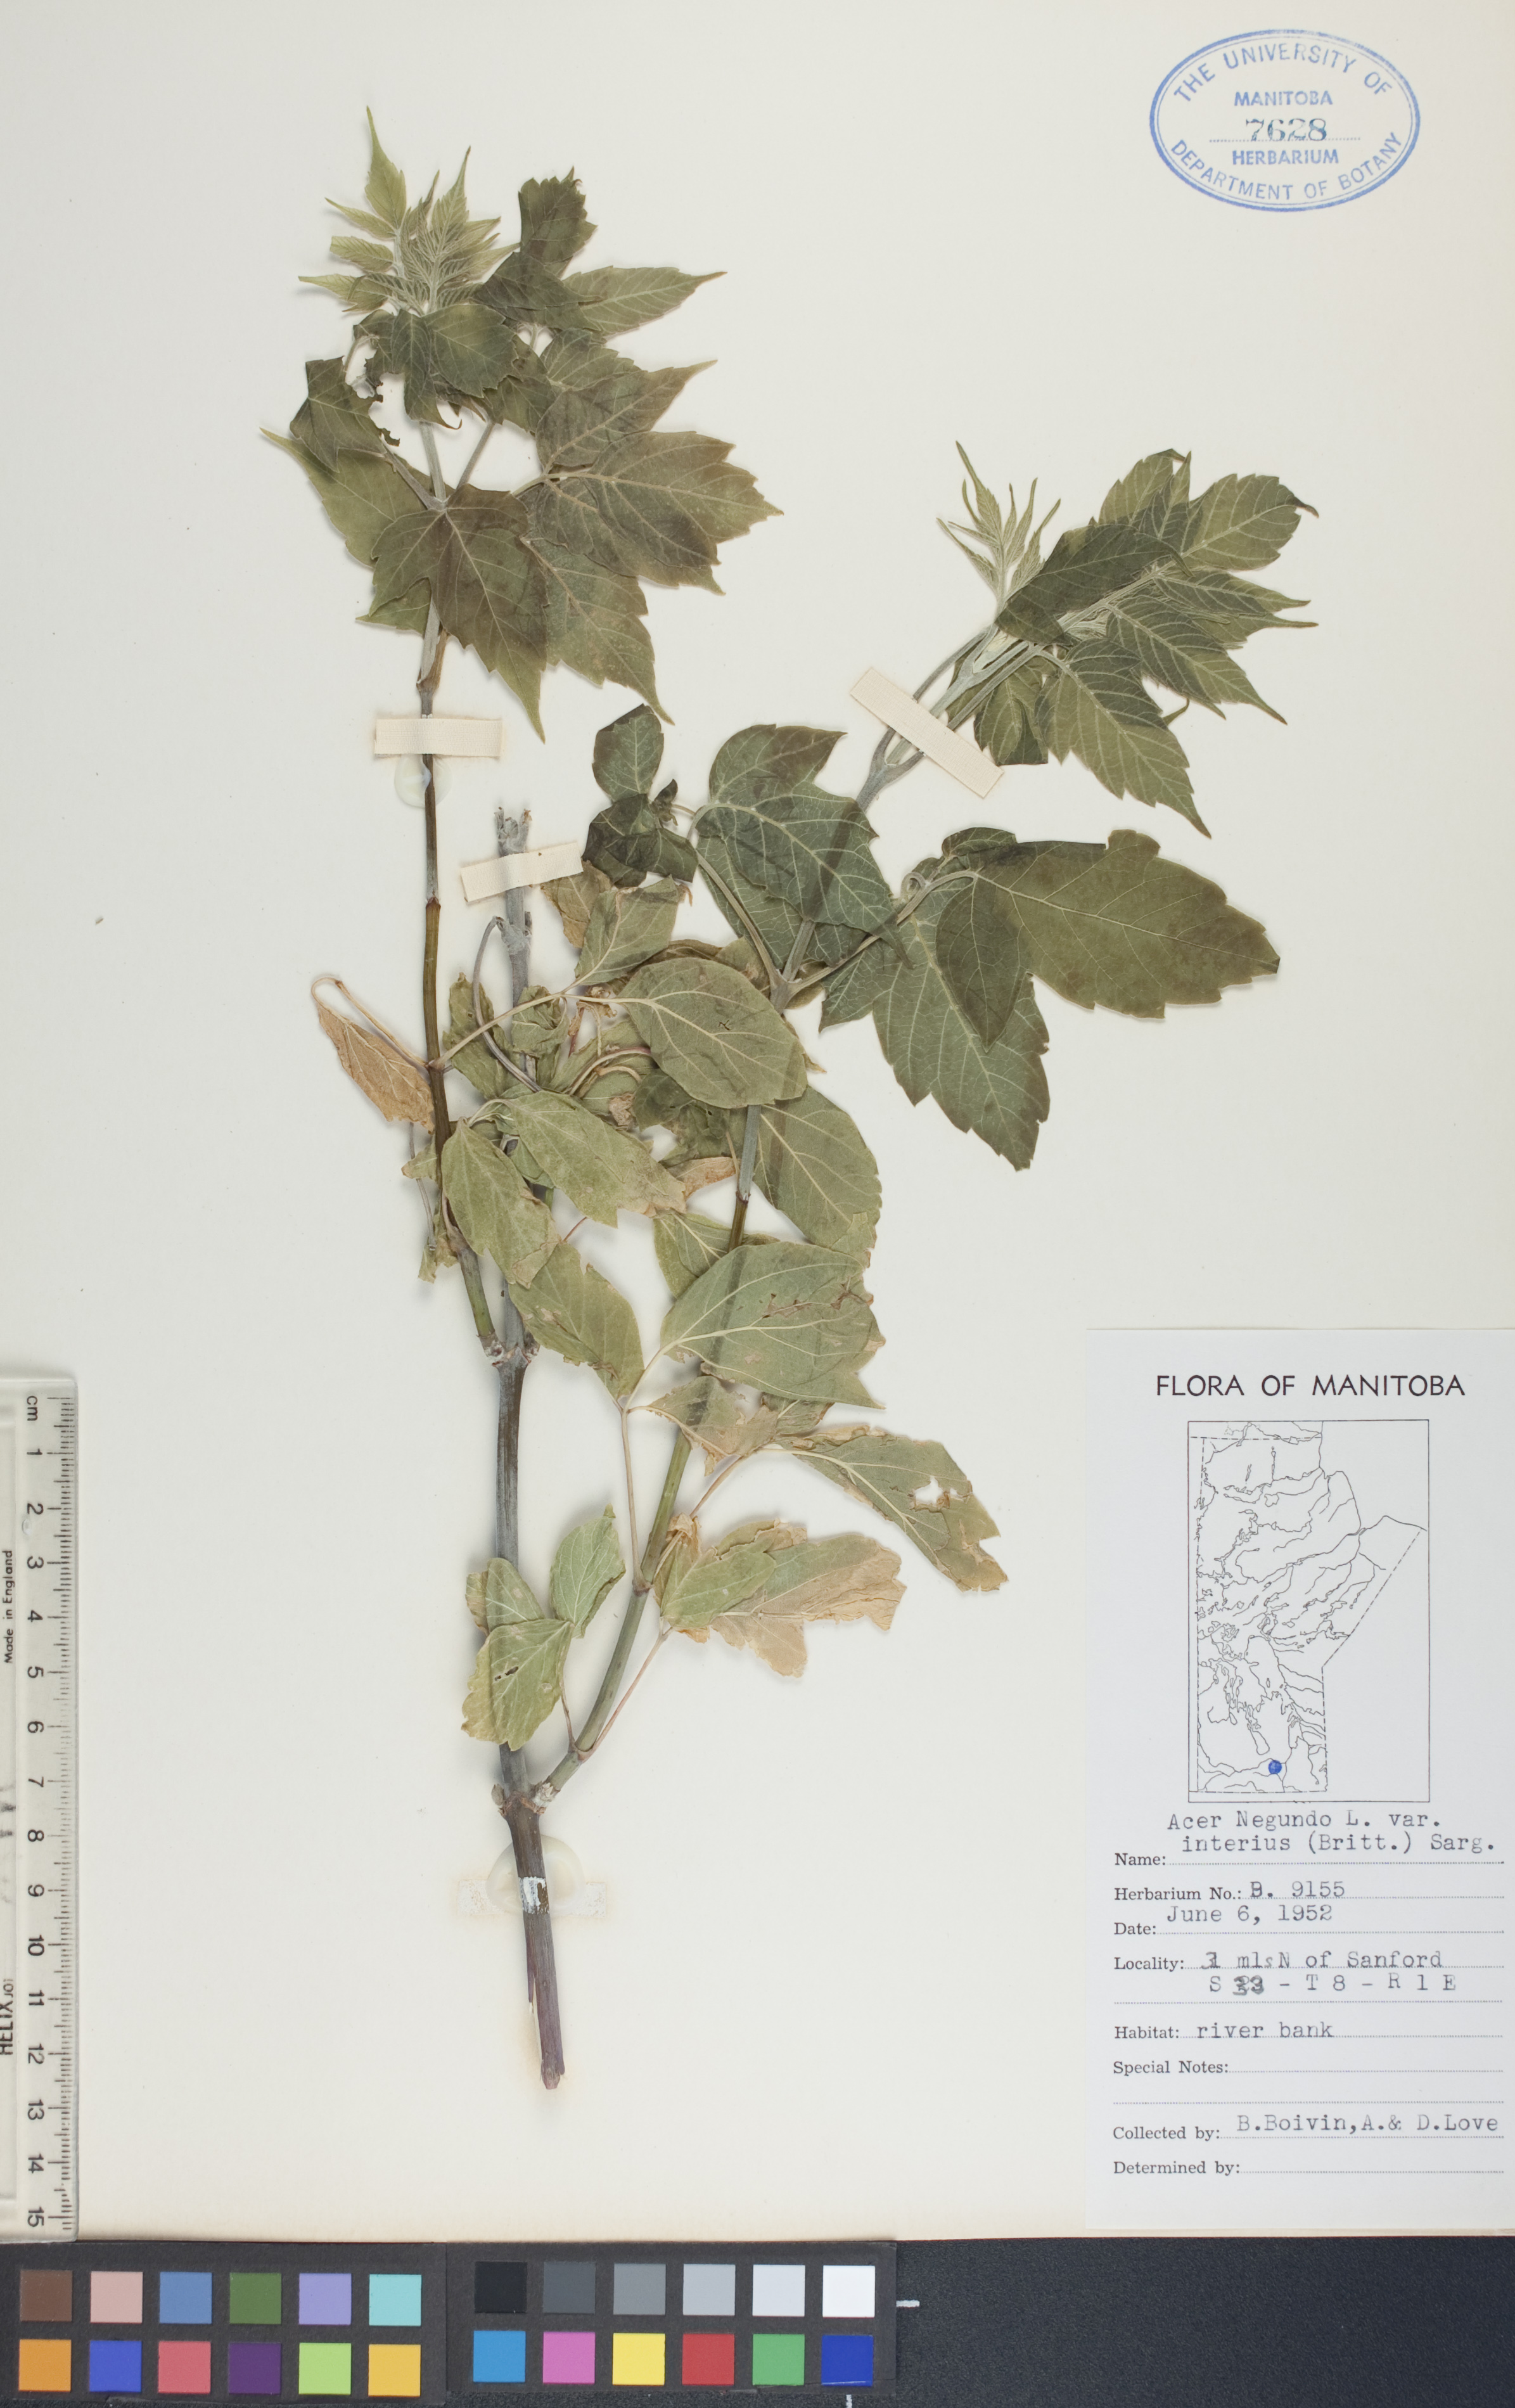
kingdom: Plantae
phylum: Tracheophyta
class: Magnoliopsida
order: Sapindales
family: Sapindaceae
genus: Acer
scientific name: Acer negundo
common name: Ashleaf maple
